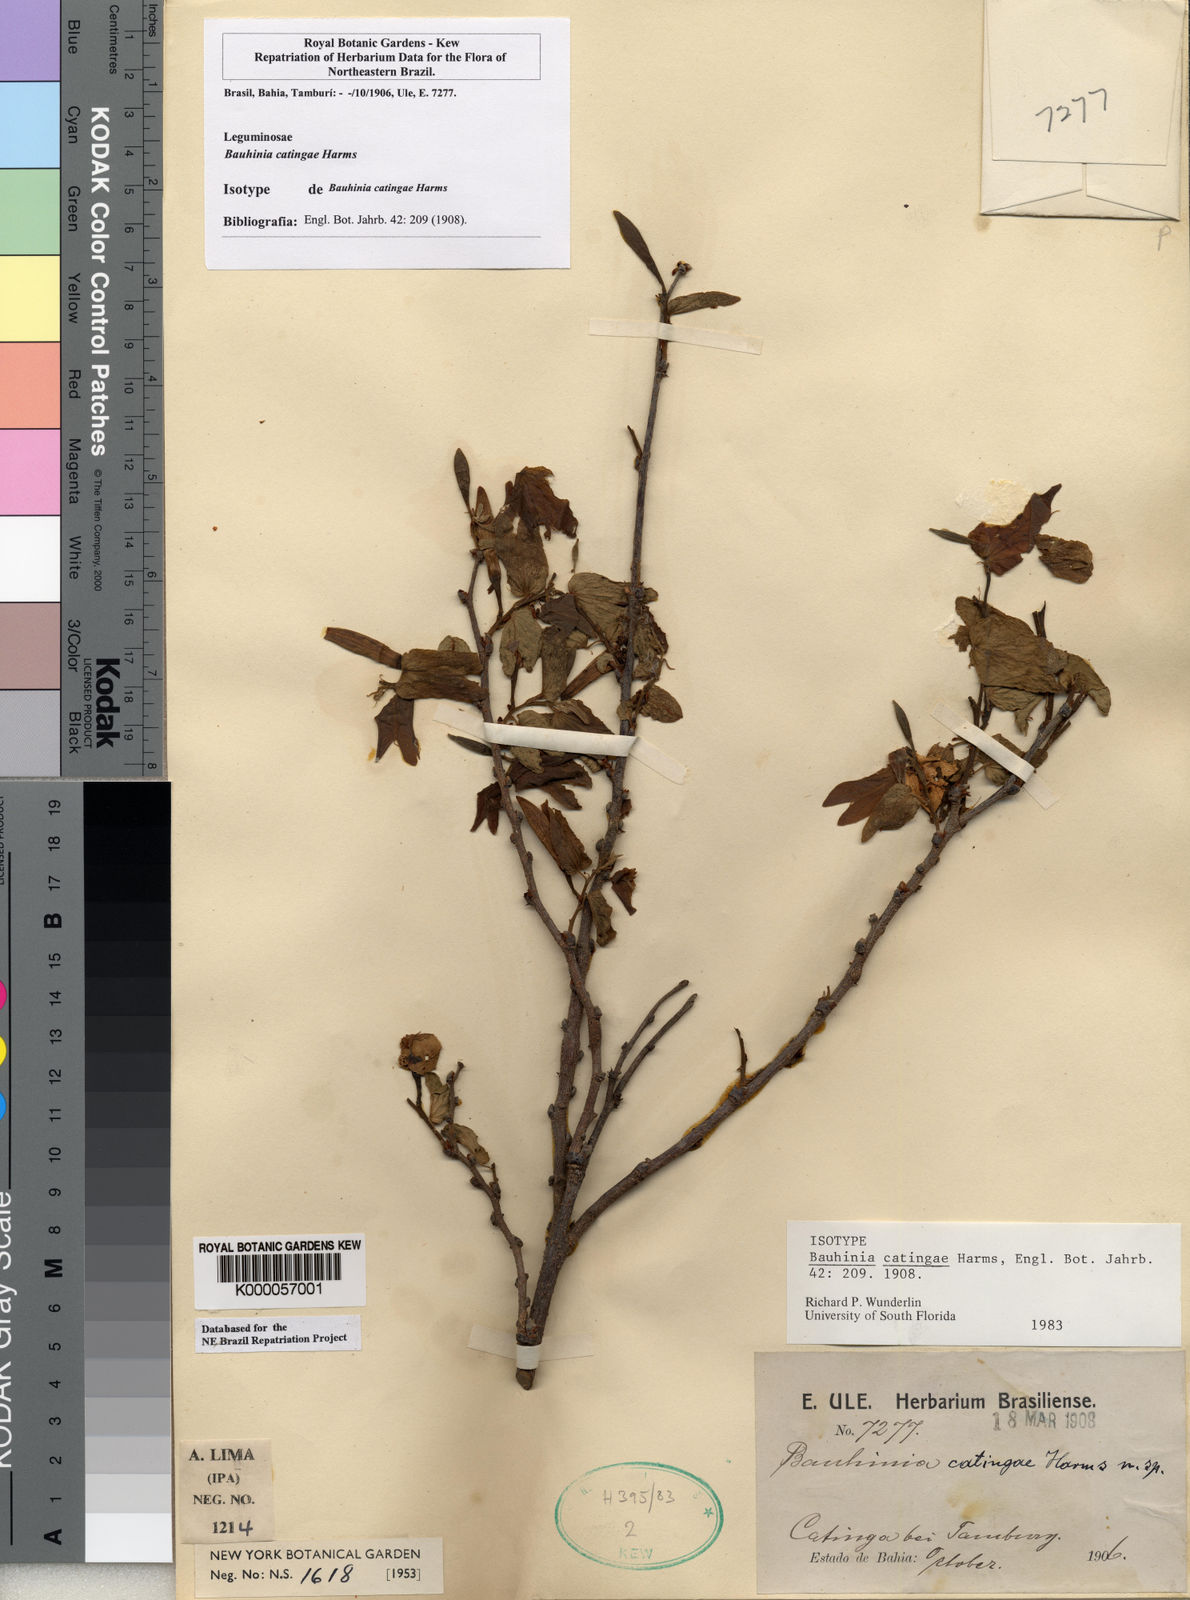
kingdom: Plantae
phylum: Tracheophyta
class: Magnoliopsida
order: Fabales
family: Fabaceae
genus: Bauhinia
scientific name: Bauhinia catingae
